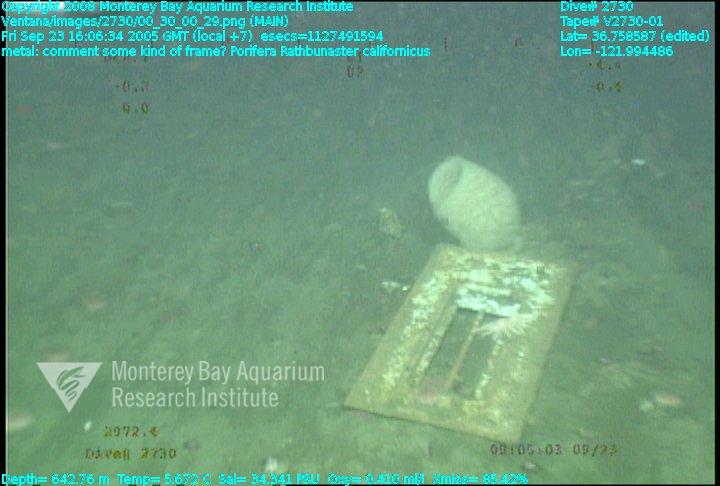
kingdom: Animalia
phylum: Porifera
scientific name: Porifera
